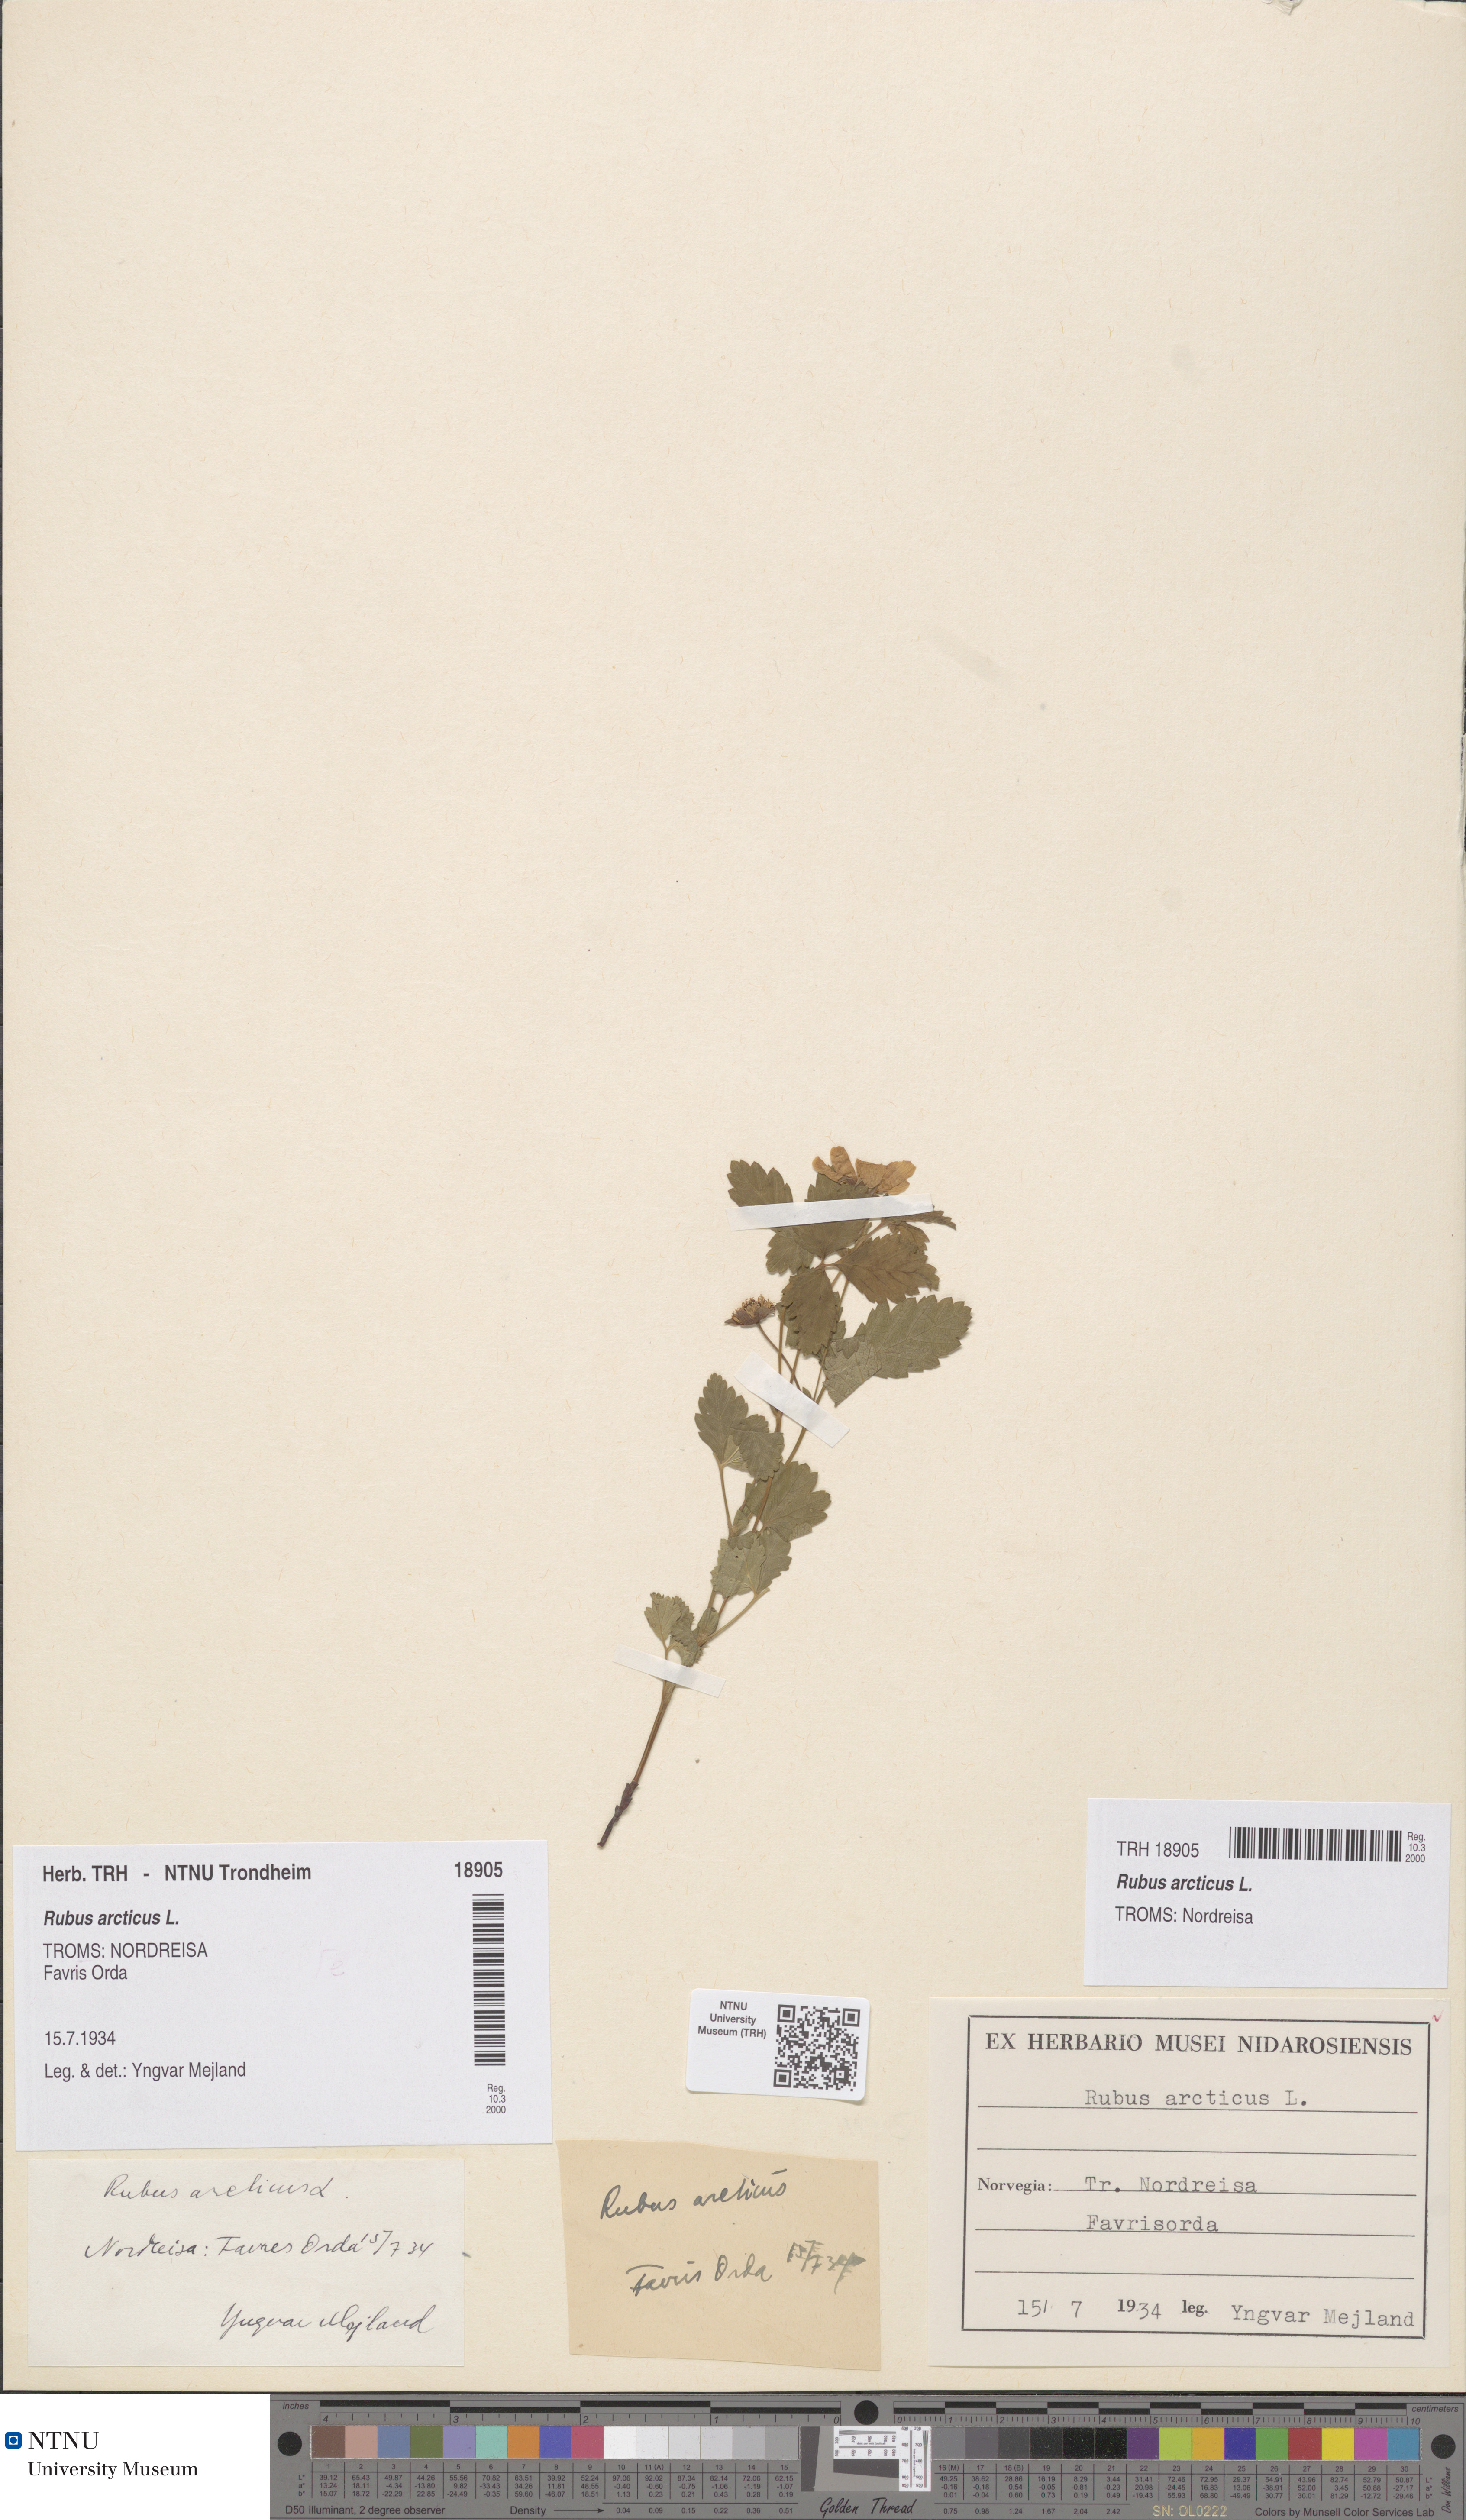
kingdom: Plantae
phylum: Tracheophyta
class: Magnoliopsida
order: Rosales
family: Rosaceae
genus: Rubus
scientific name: Rubus arcticus
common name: Arctic bramble
